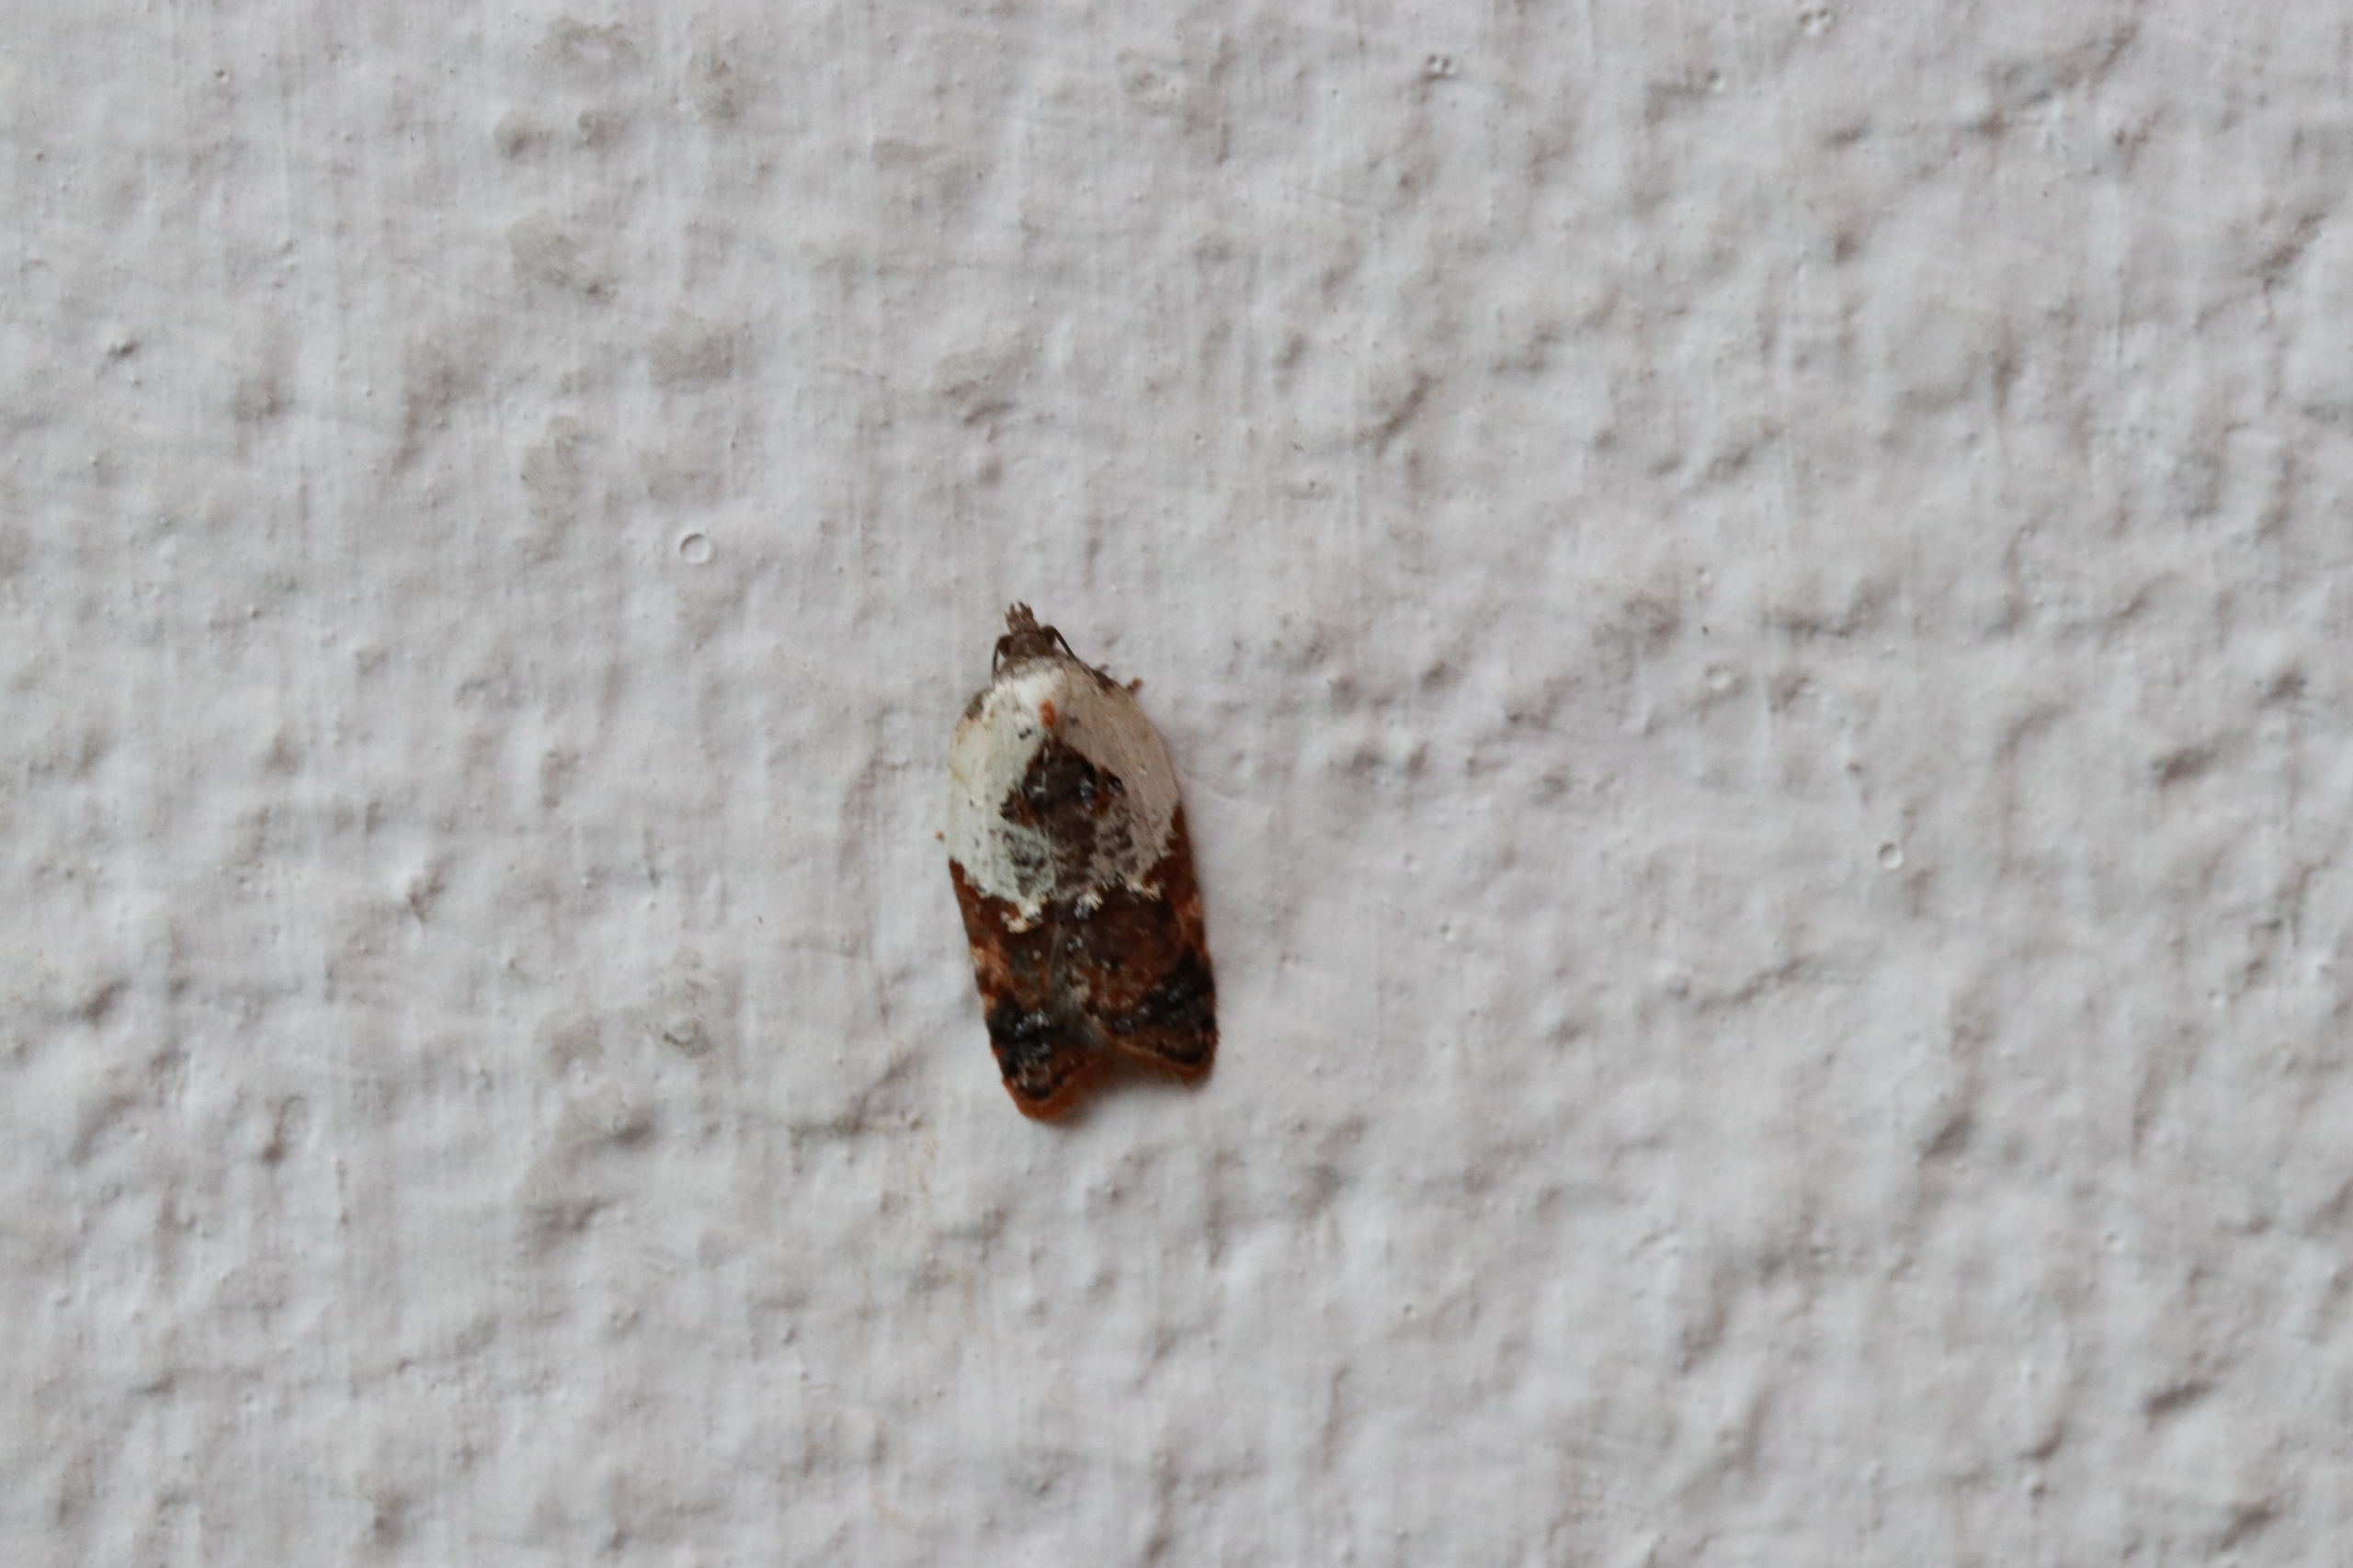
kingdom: Animalia
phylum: Arthropoda
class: Insecta
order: Lepidoptera
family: Tortricidae
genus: Acleris
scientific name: Acleris variegana
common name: Hvidbroget rosenvikler
